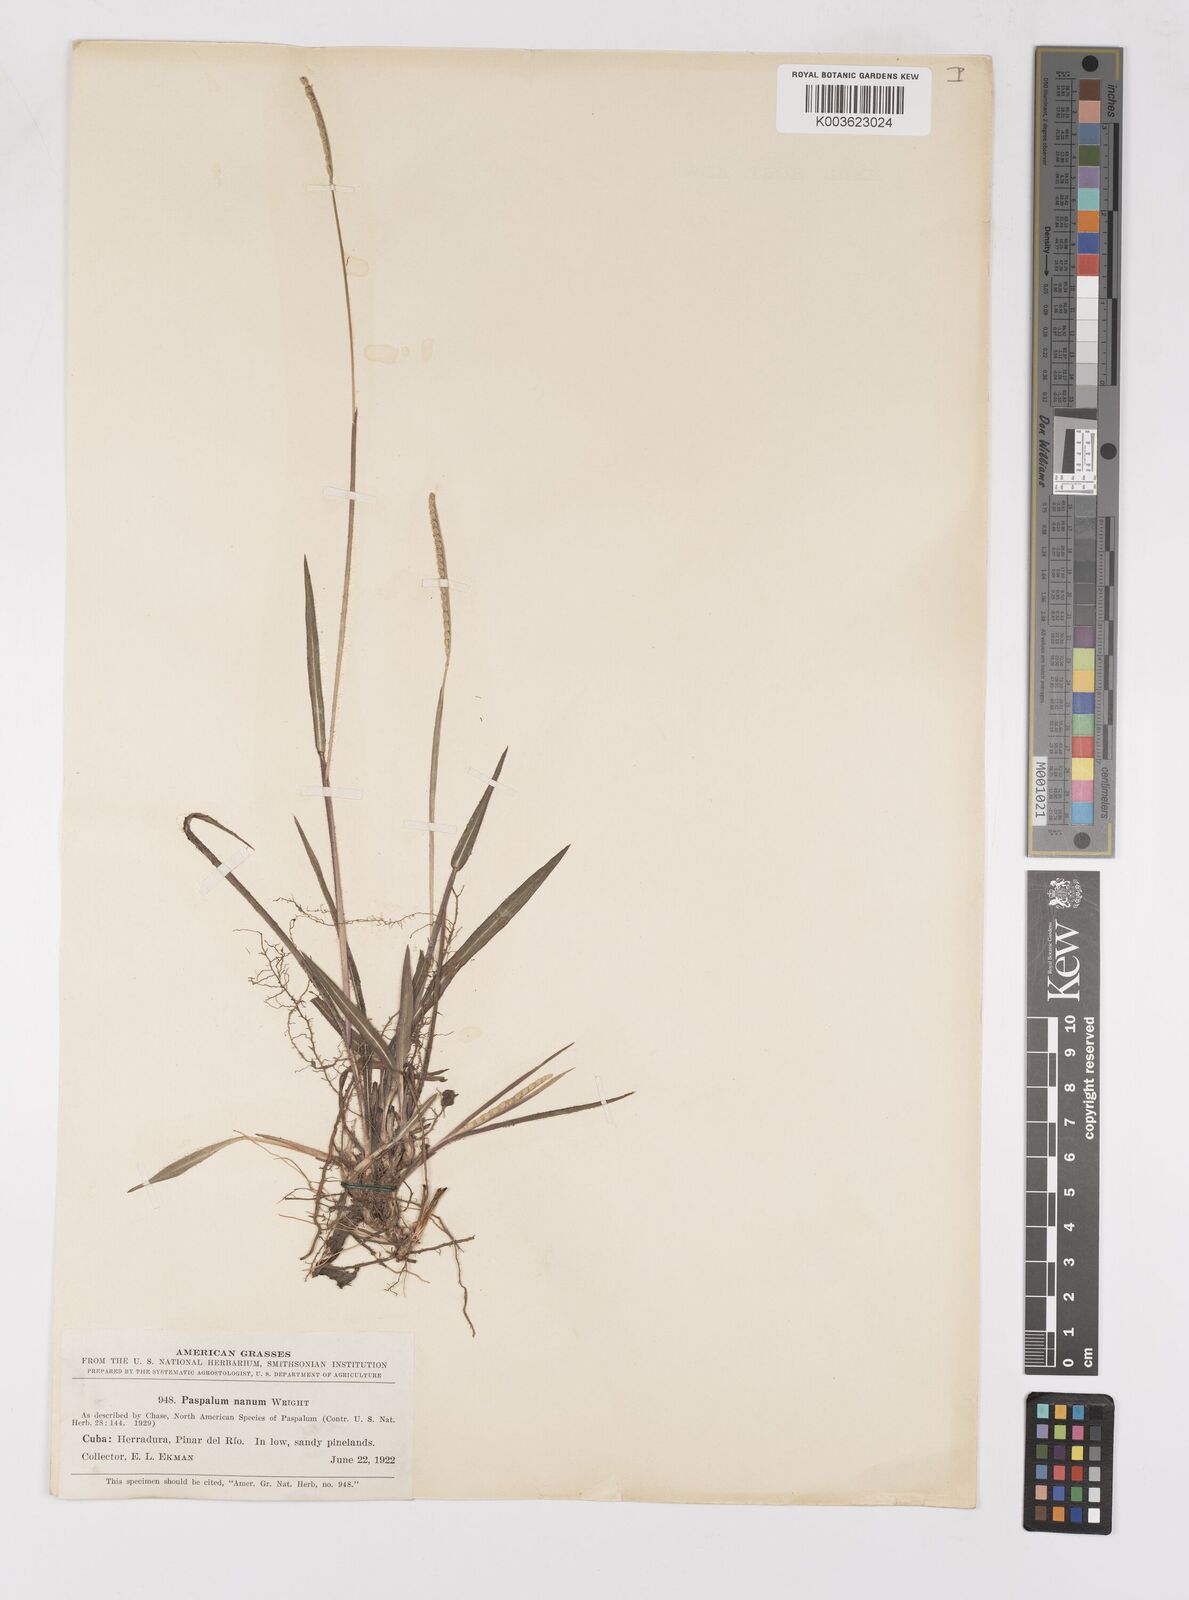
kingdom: Plantae
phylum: Tracheophyta
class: Liliopsida
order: Poales
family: Poaceae
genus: Paspalum
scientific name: Paspalum nanum
